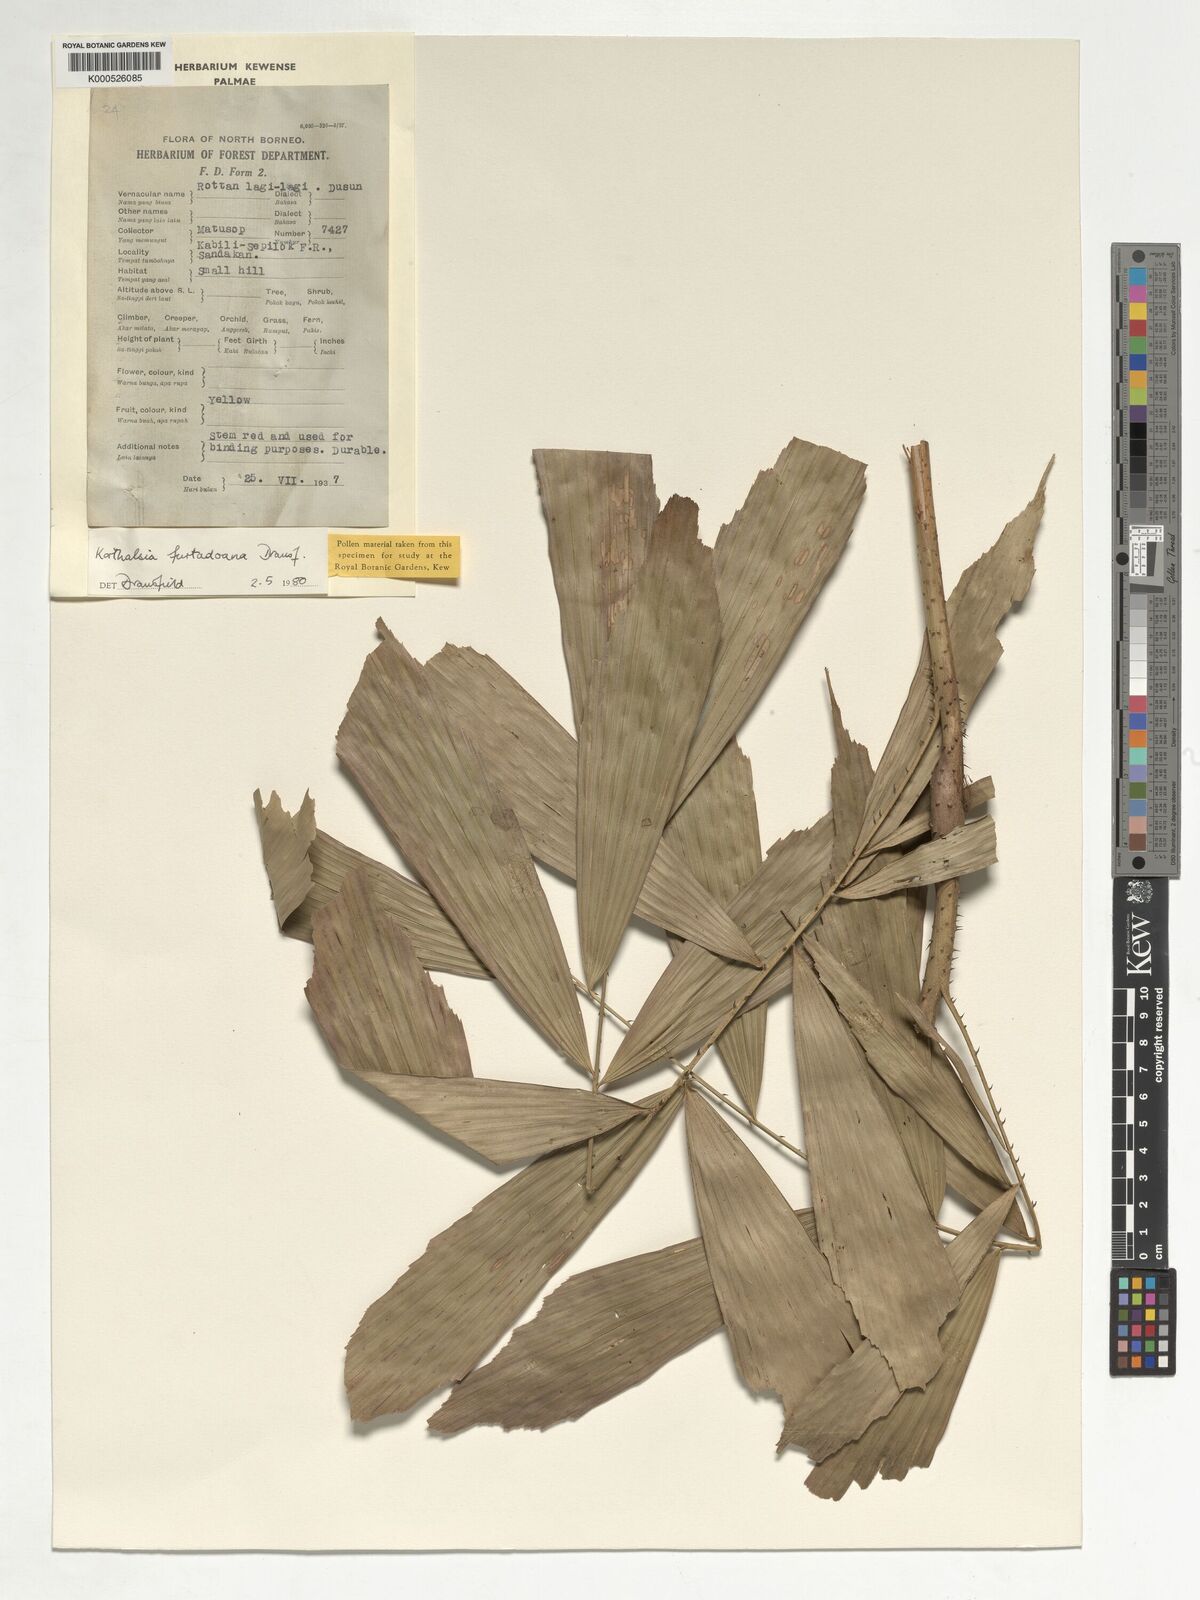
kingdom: Plantae
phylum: Tracheophyta
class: Liliopsida
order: Arecales
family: Arecaceae
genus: Korthalsia
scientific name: Korthalsia furtadoana
